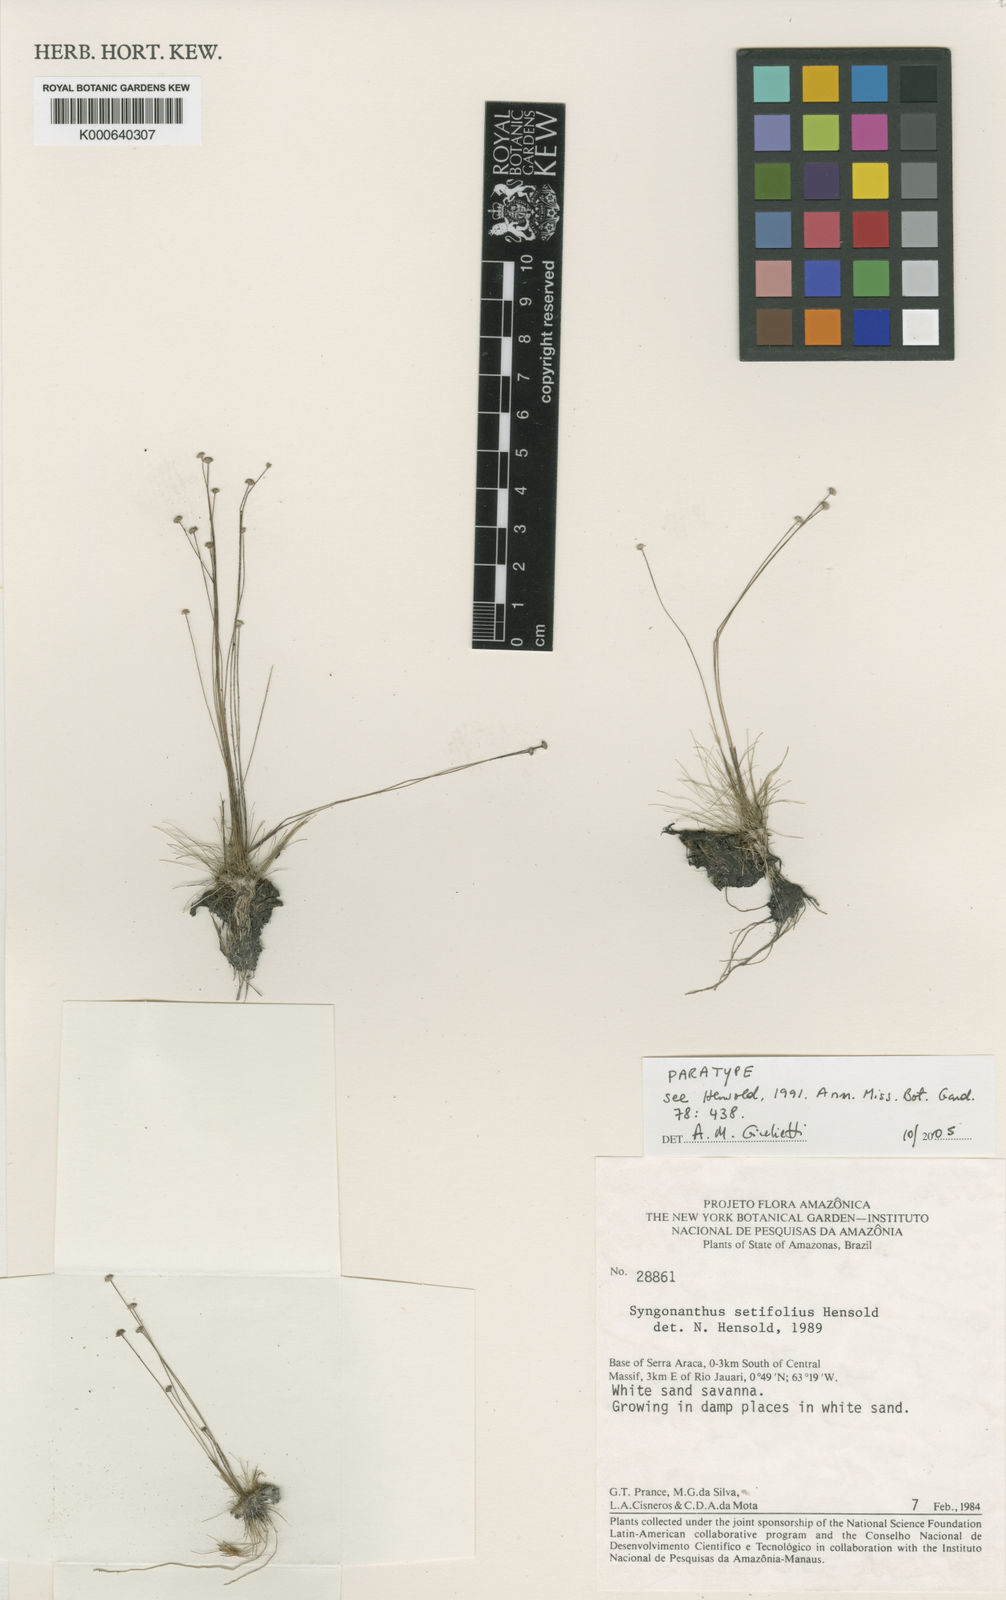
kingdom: Plantae
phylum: Tracheophyta
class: Liliopsida
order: Poales
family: Eriocaulaceae
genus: Syngonanthus
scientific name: Syngonanthus setifolius
